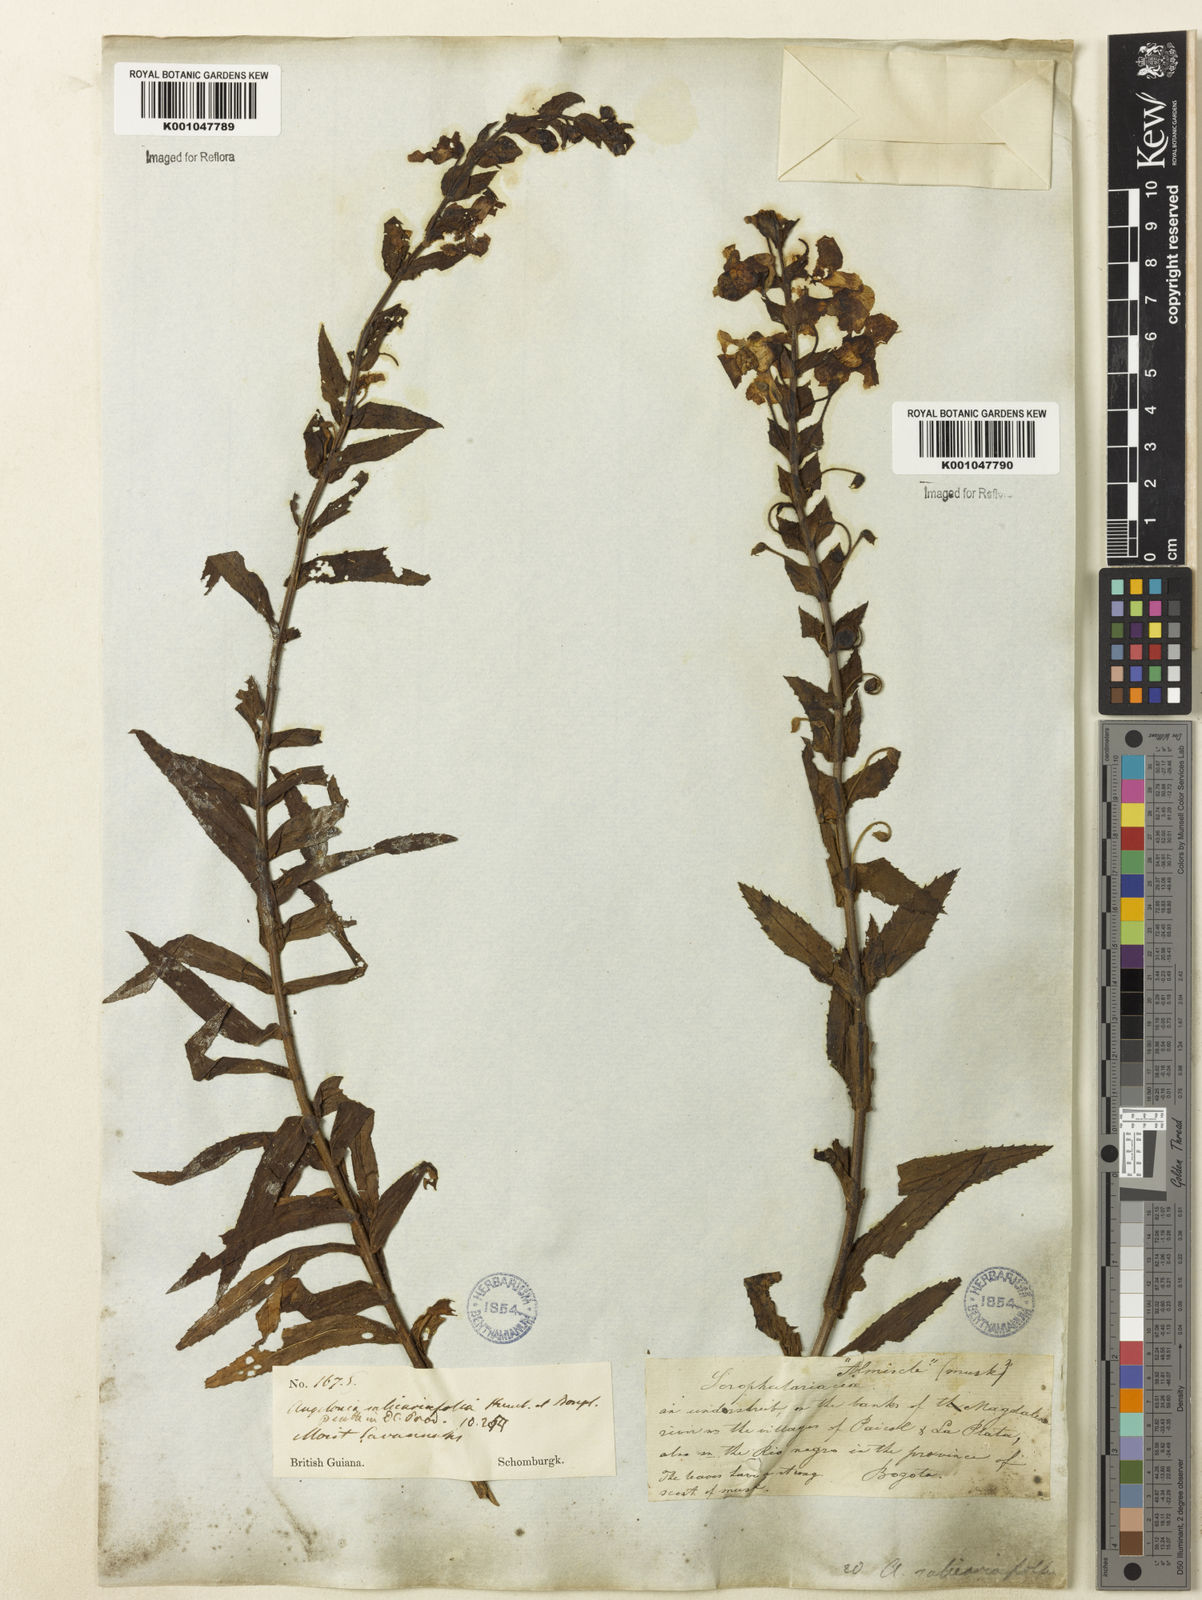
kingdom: Plantae
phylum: Tracheophyta
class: Magnoliopsida
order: Lamiales
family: Plantaginaceae
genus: Angelonia
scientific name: Angelonia salicariifolia
